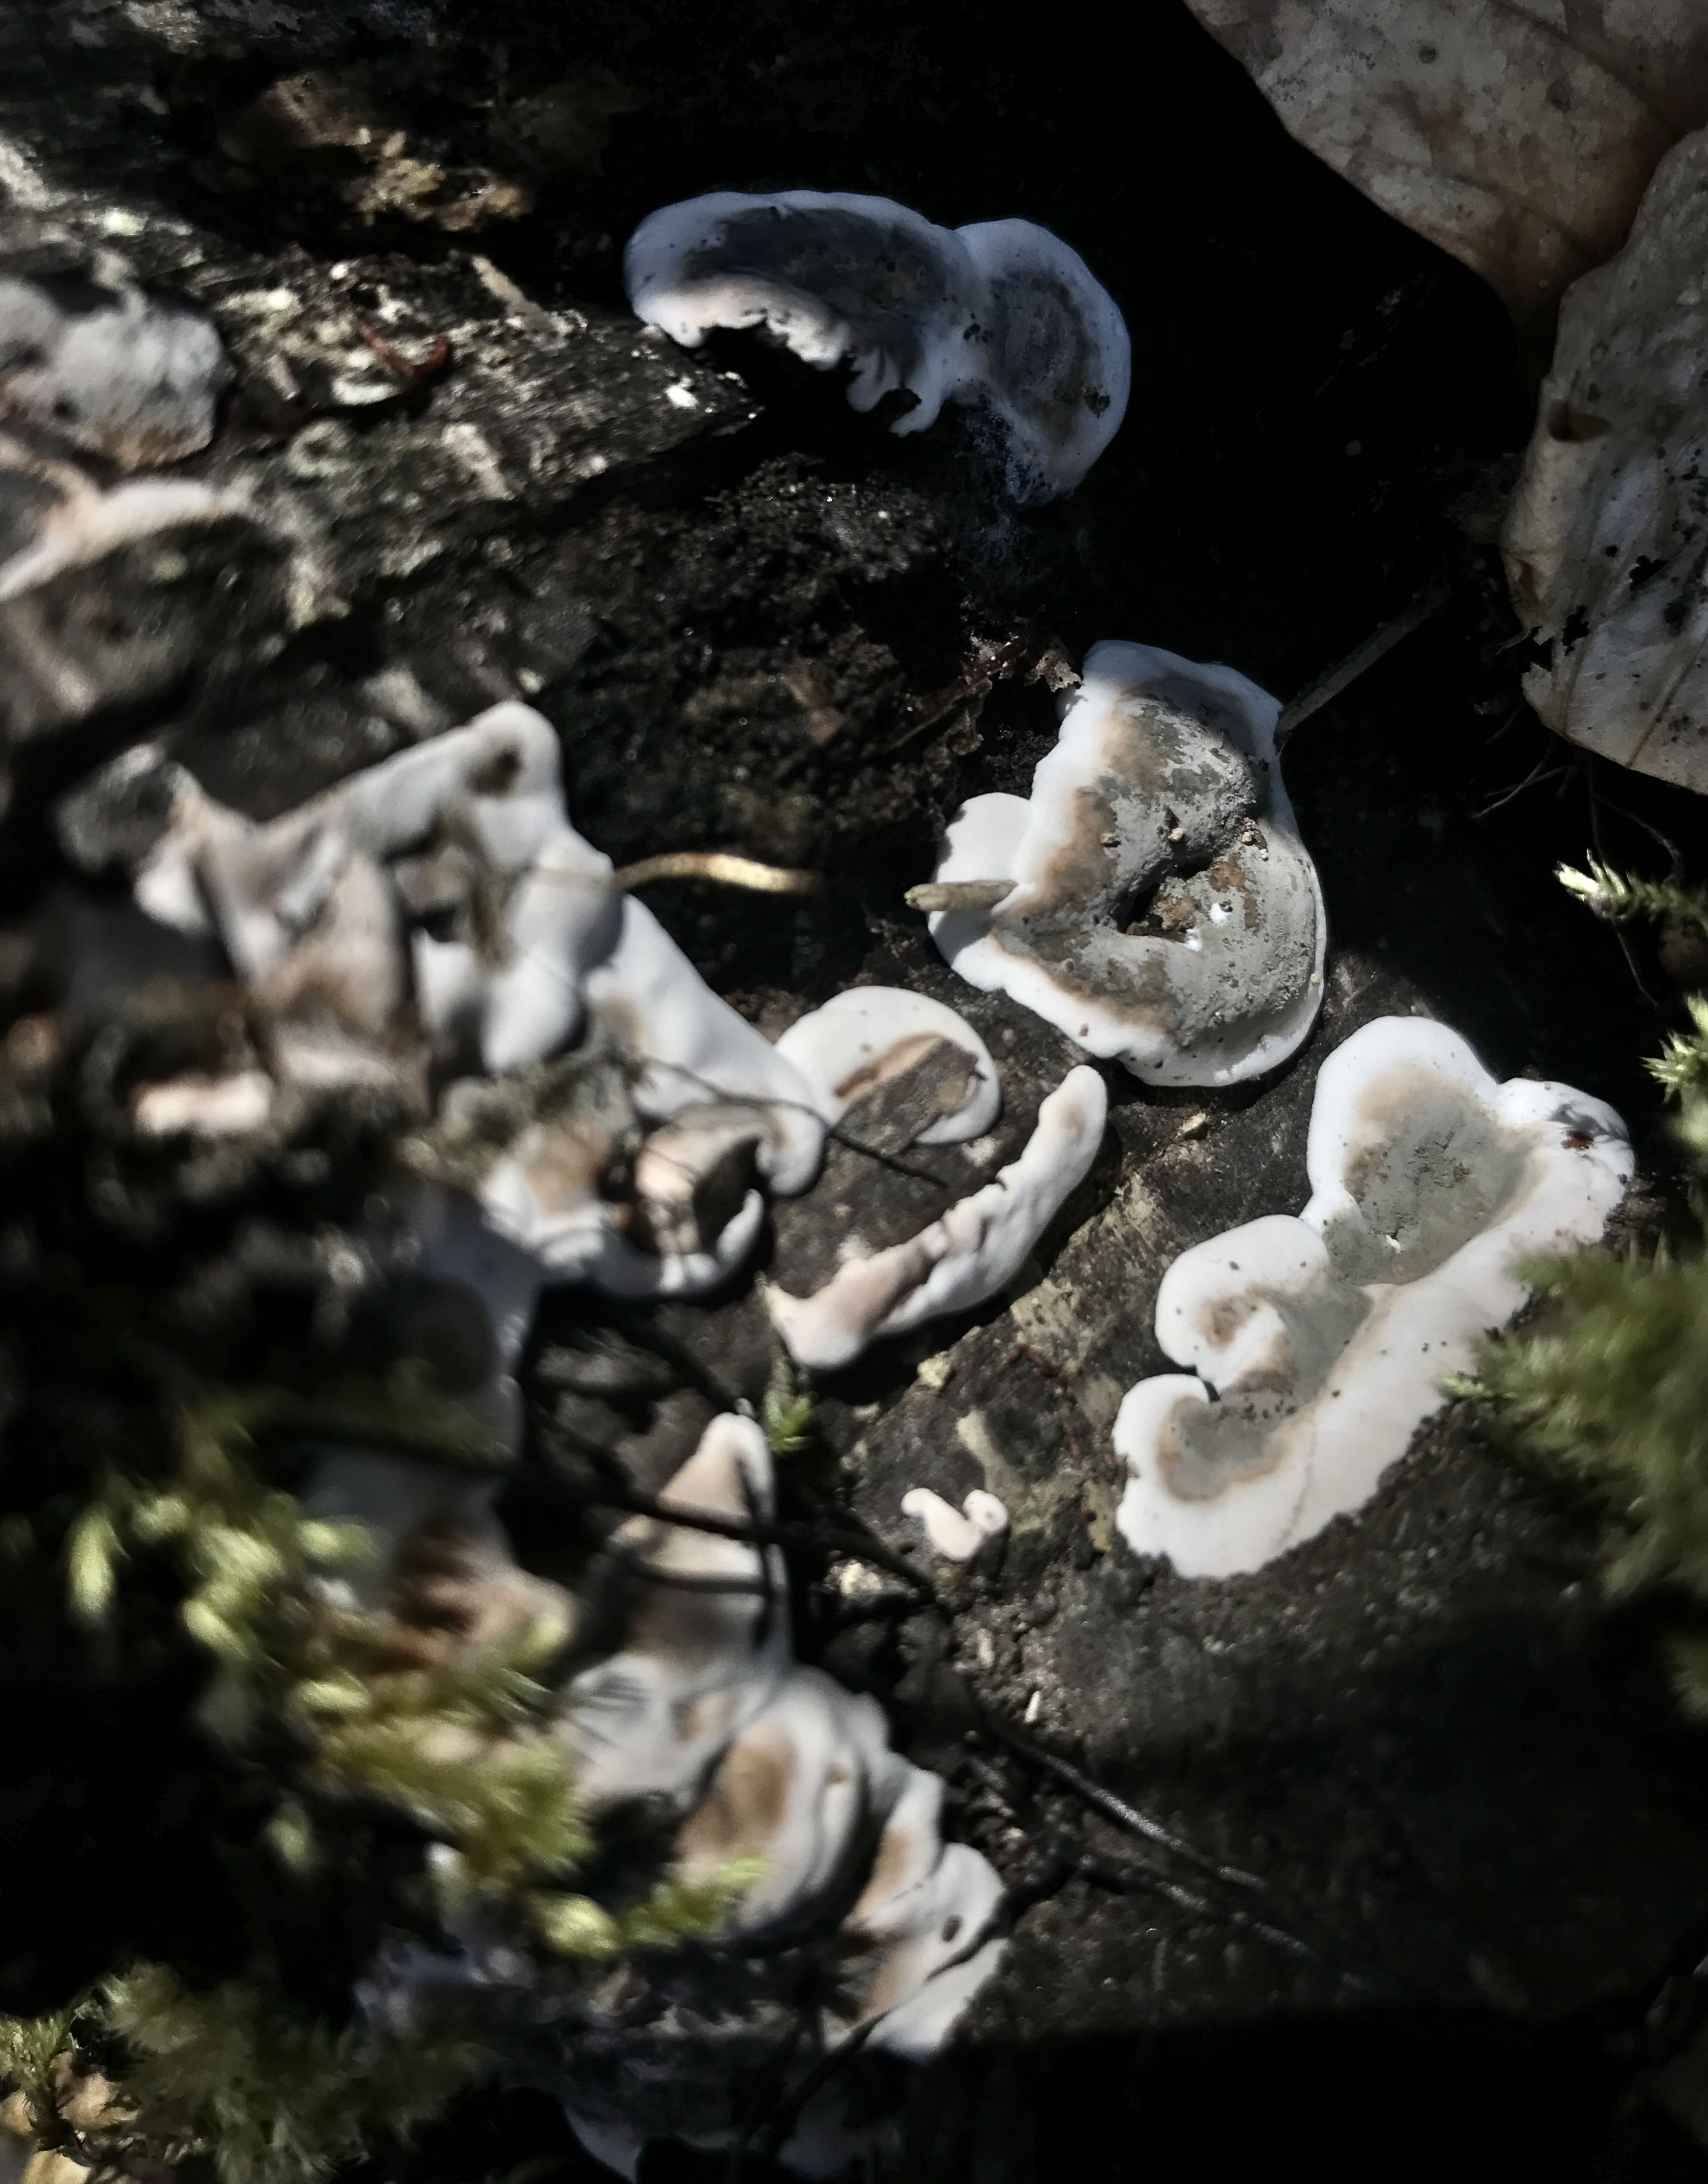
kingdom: Fungi
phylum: Ascomycota
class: Sordariomycetes
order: Xylariales
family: Xylariaceae
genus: Kretzschmaria
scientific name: Kretzschmaria deusta
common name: stor kulsvamp
